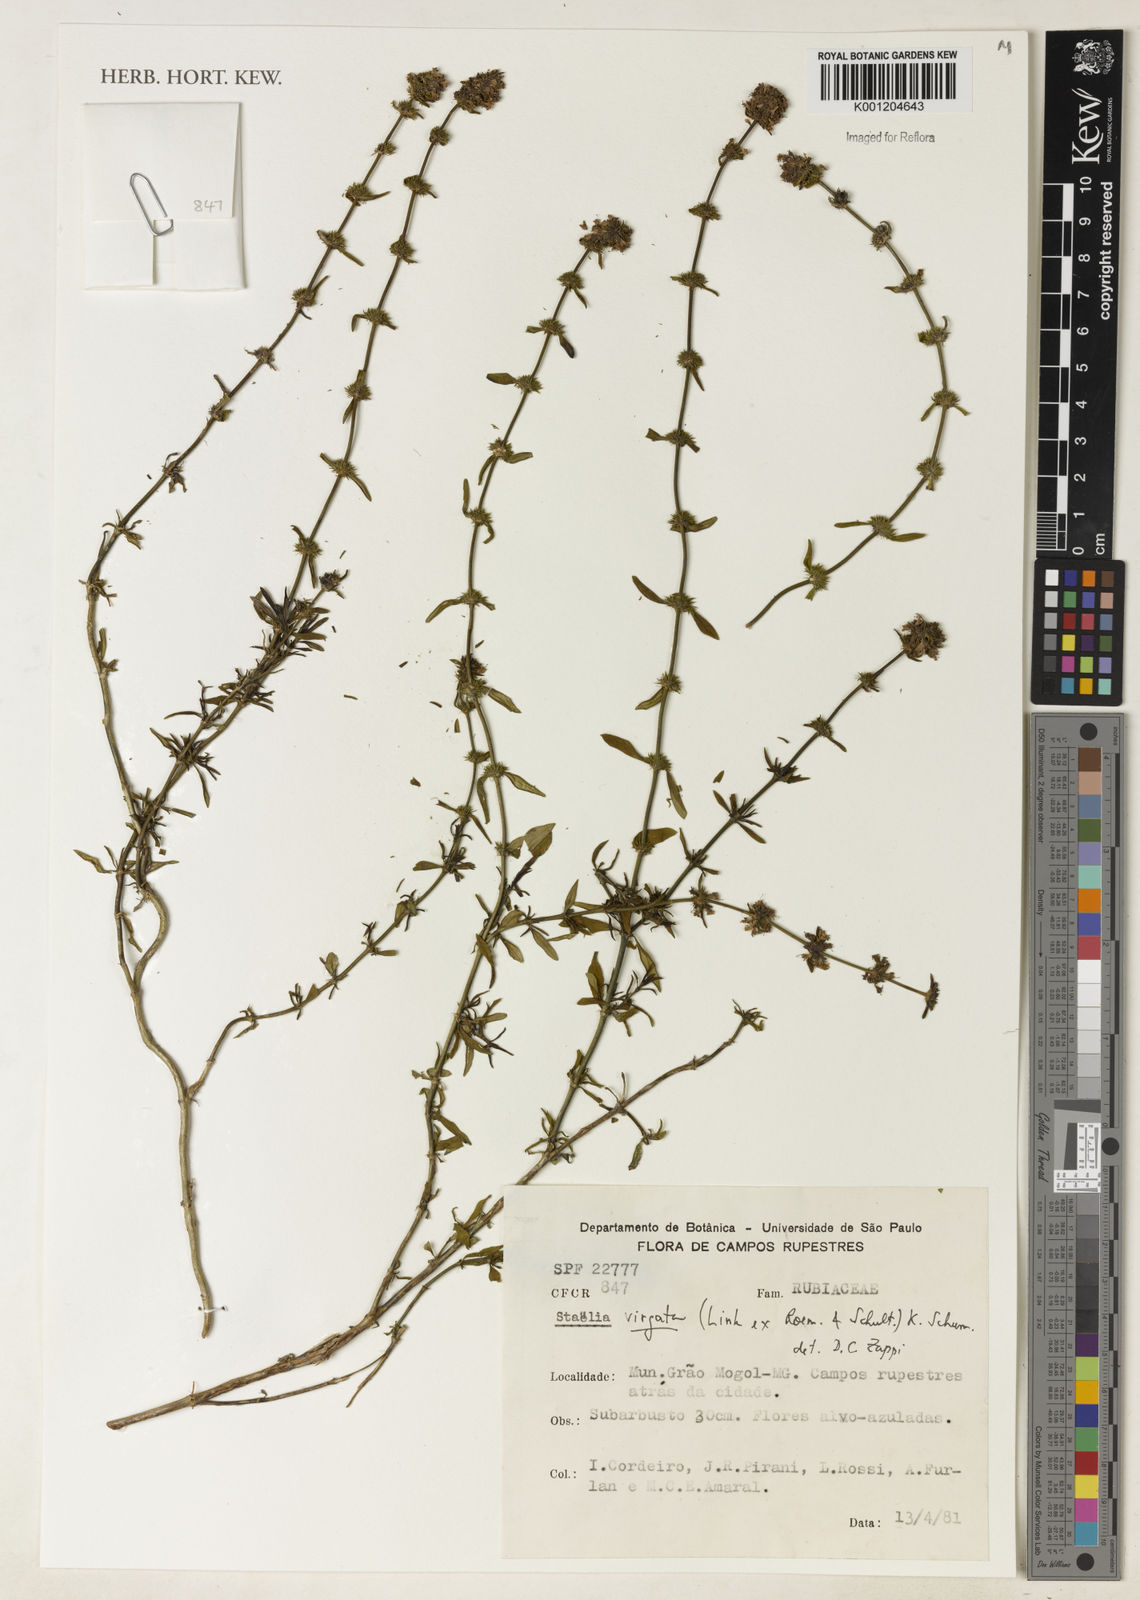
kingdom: Plantae
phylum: Tracheophyta
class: Magnoliopsida
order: Gentianales
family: Rubiaceae
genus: Staelia
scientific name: Staelia virgata
